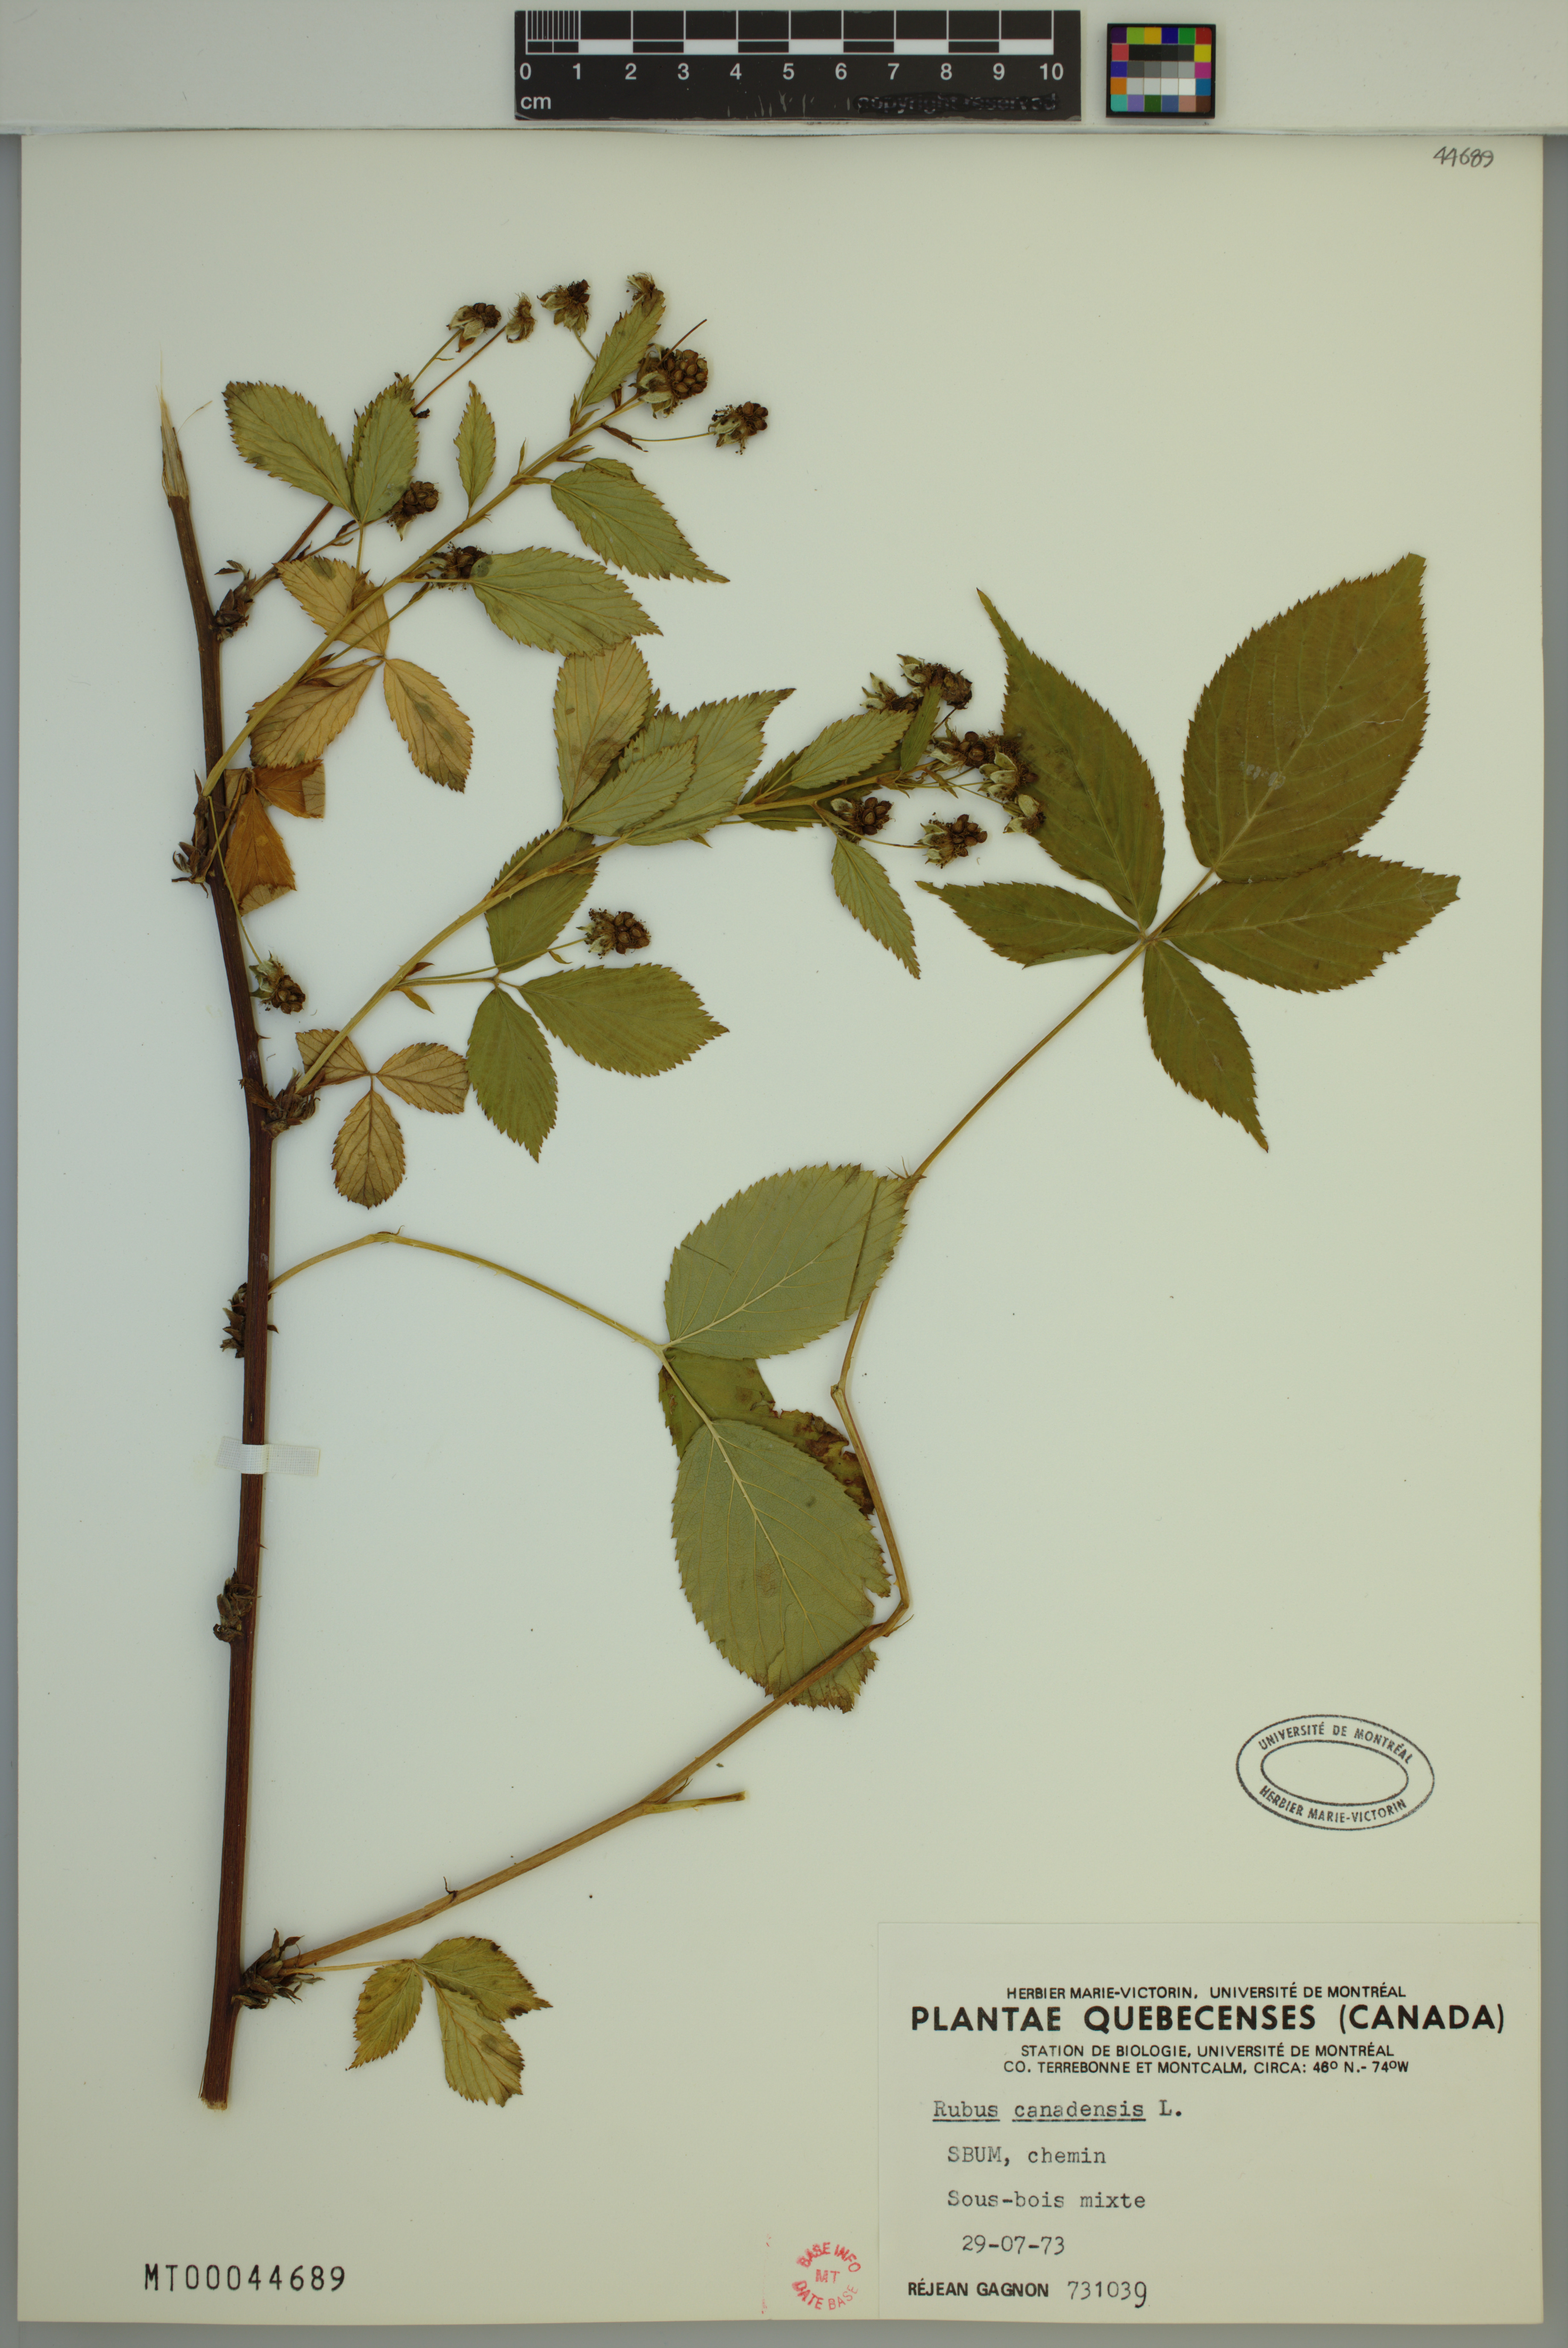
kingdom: Plantae
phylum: Tracheophyta
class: Magnoliopsida
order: Rosales
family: Rosaceae
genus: Rubus
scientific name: Rubus canadensis
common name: Smooth blackberry
